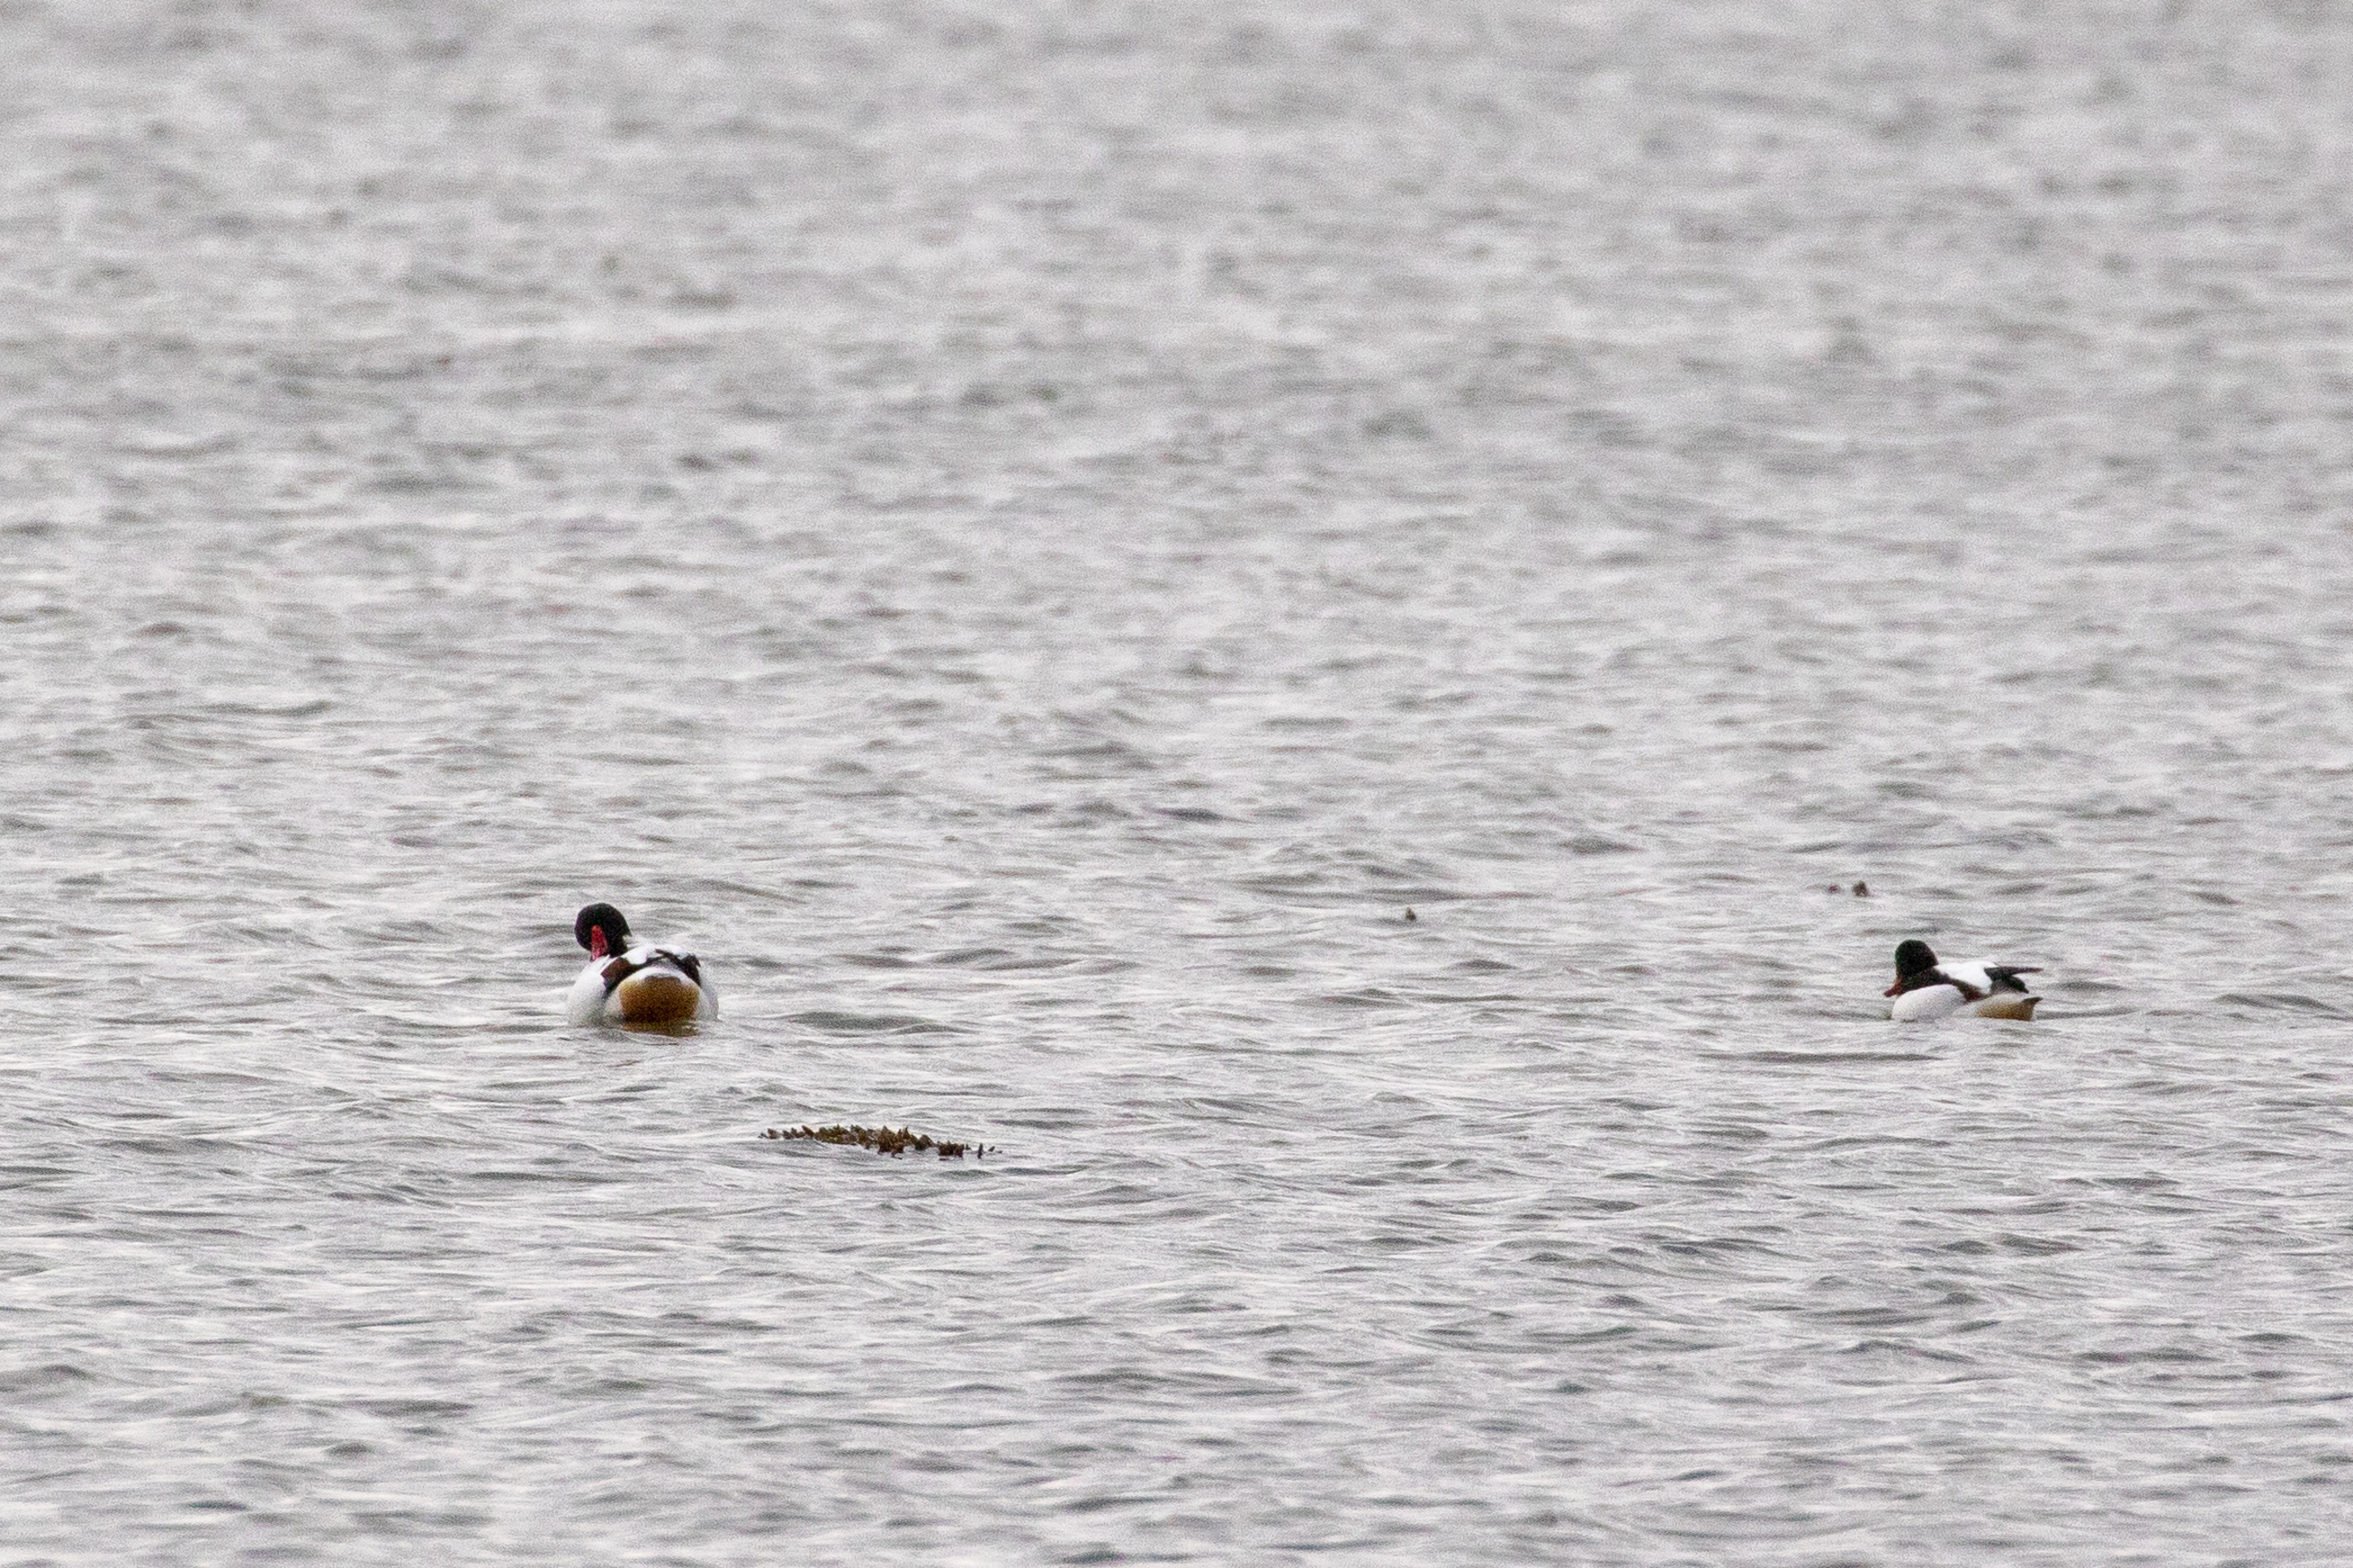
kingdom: Animalia
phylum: Chordata
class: Aves
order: Anseriformes
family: Anatidae
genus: Tadorna
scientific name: Tadorna tadorna
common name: Gravand
